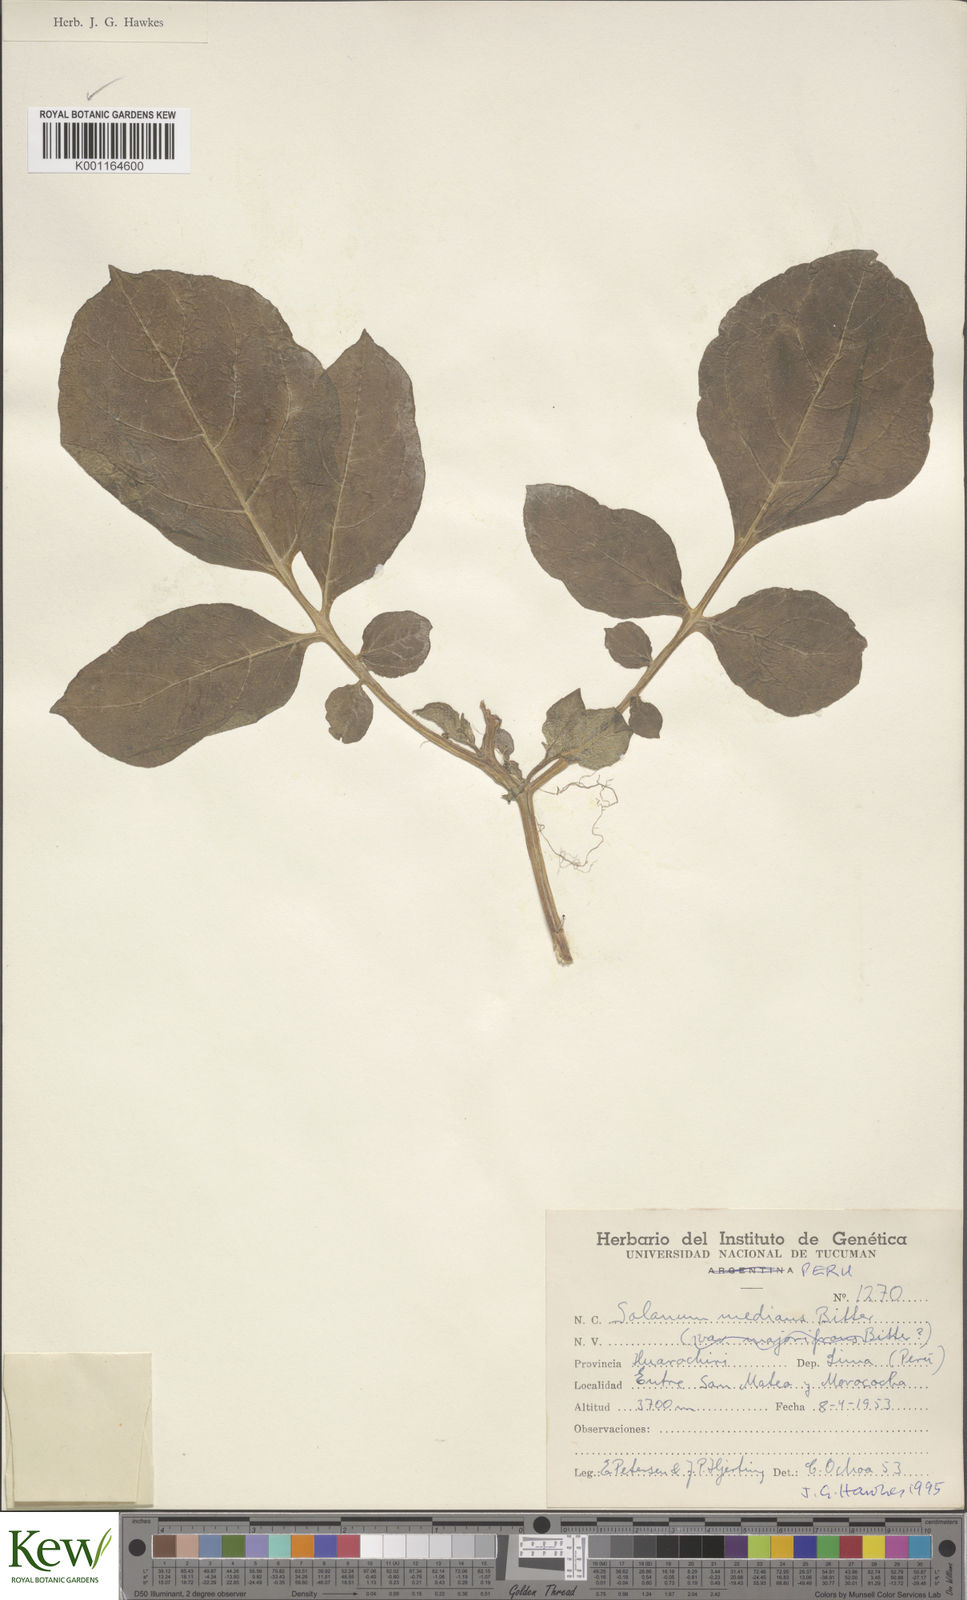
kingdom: Plantae
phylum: Tracheophyta
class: Magnoliopsida
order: Solanales
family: Solanaceae
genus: Solanum
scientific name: Solanum medians
